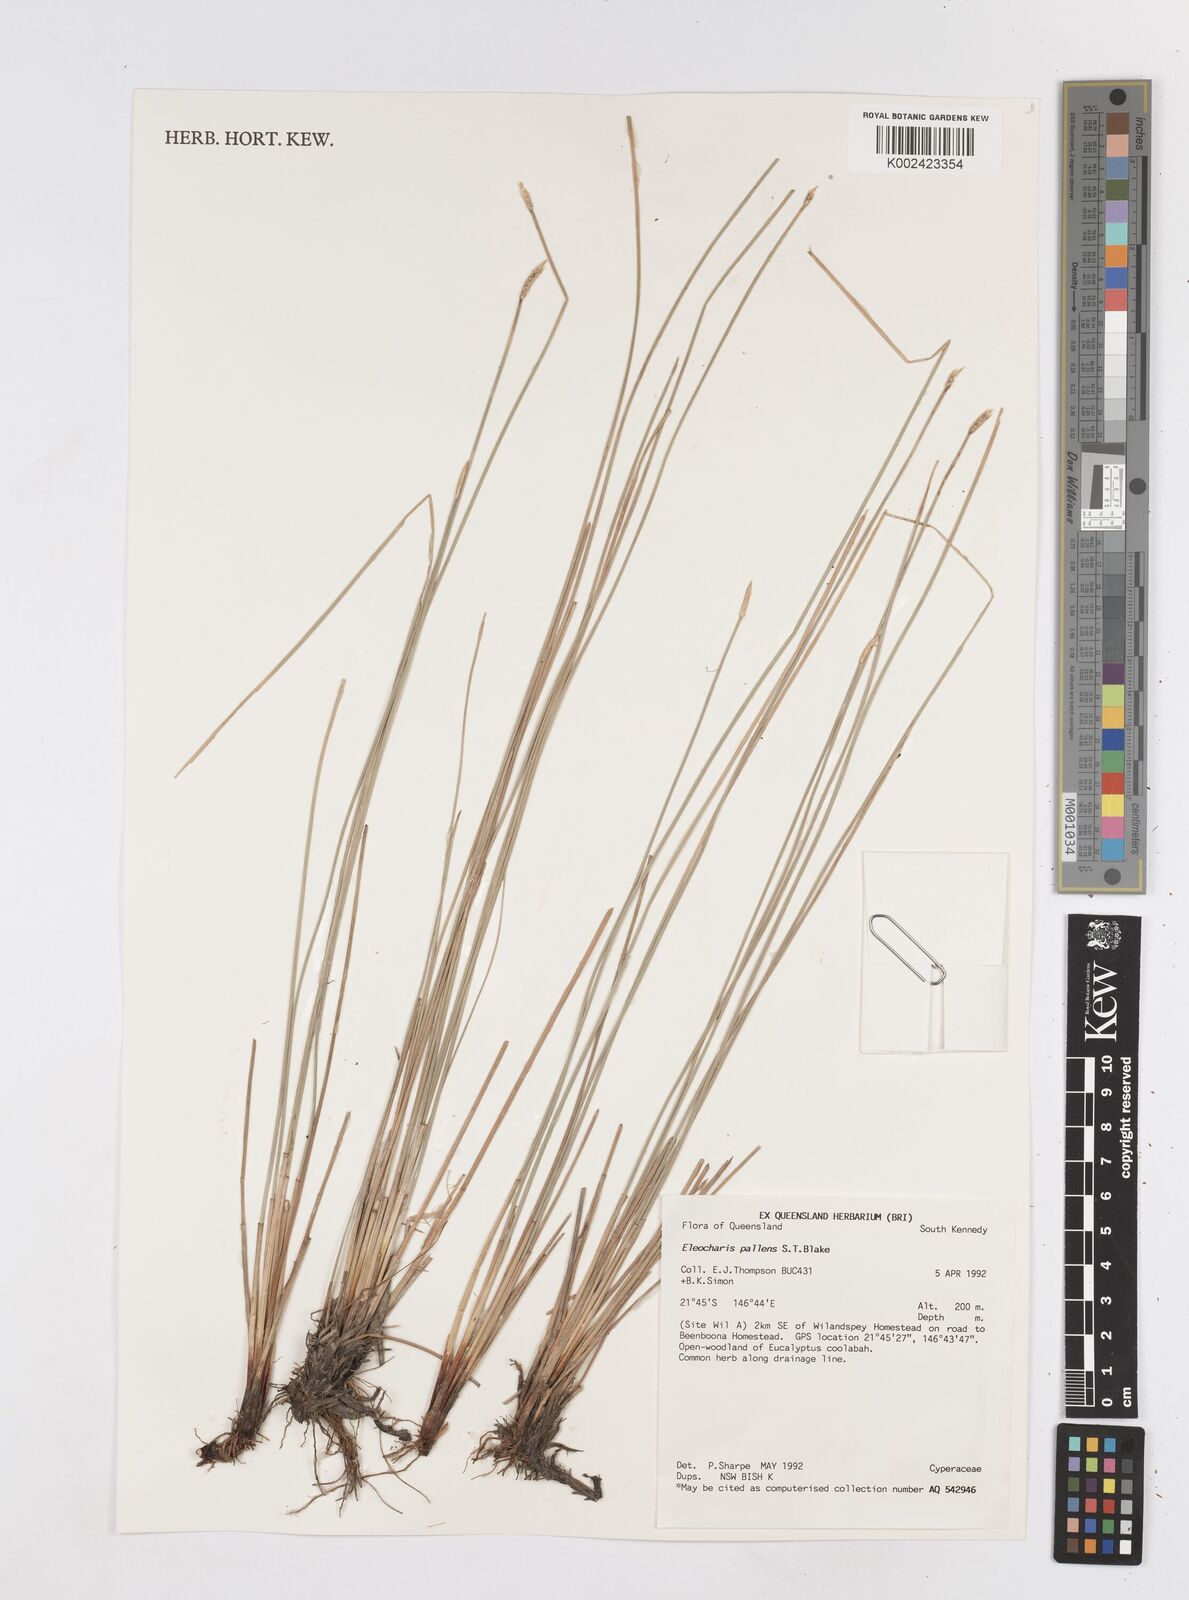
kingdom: Plantae
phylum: Tracheophyta
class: Liliopsida
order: Poales
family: Cyperaceae
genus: Eleocharis
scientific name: Eleocharis acuta
